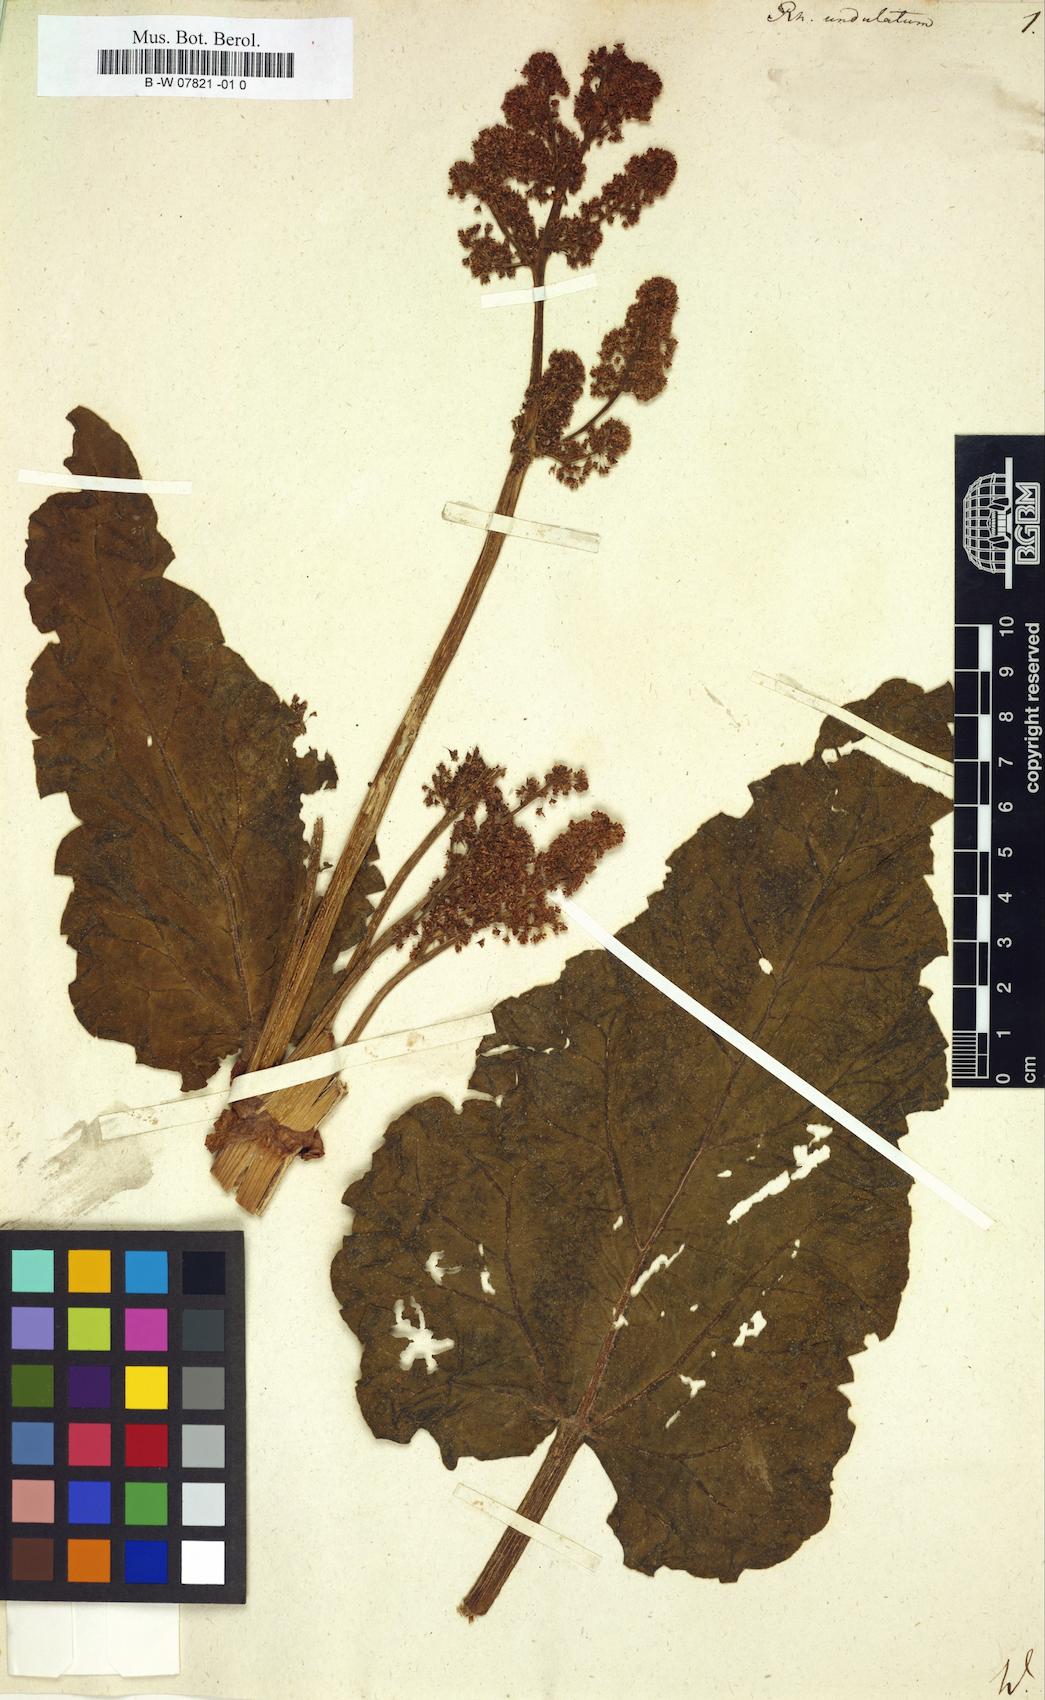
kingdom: Plantae
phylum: Tracheophyta
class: Magnoliopsida
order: Caryophyllales
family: Polygonaceae
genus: Rheum
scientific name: Rheum
